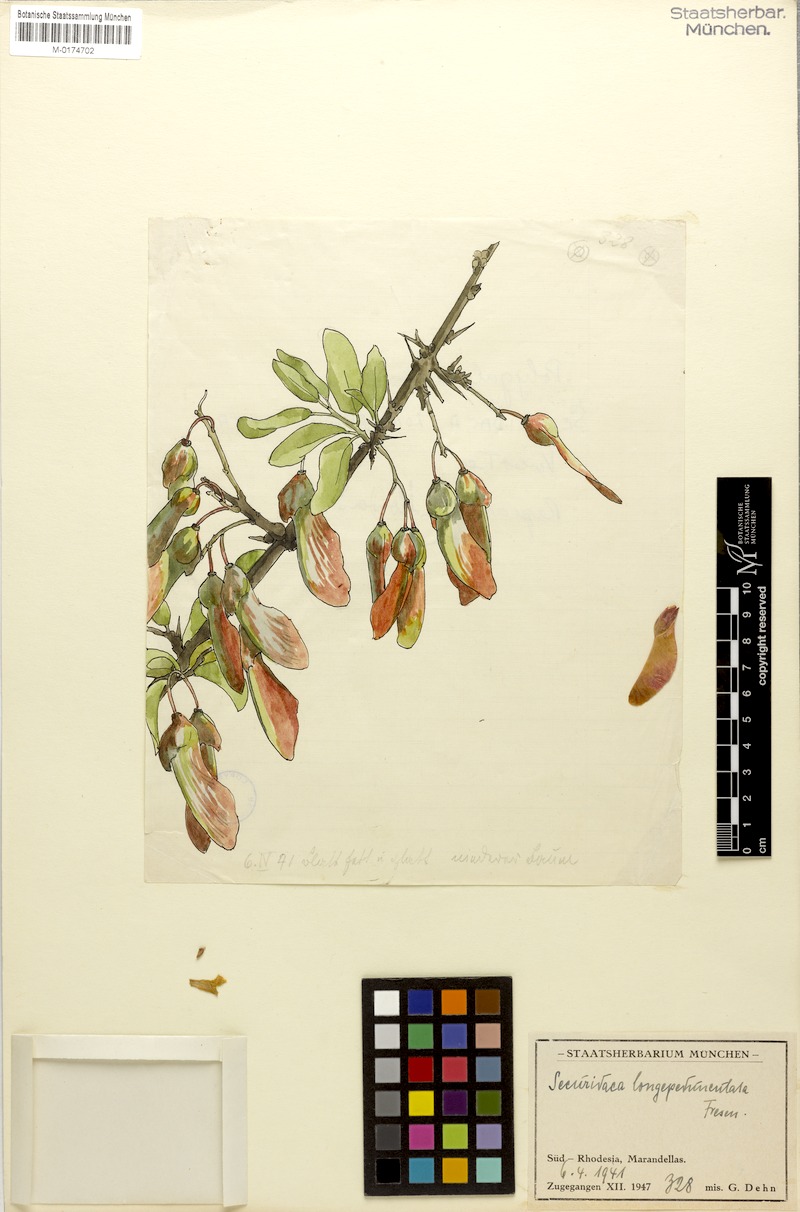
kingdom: Plantae
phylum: Tracheophyta
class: Magnoliopsida
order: Fabales
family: Polygalaceae
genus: Securidaca
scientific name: Securidaca longipedunculata
